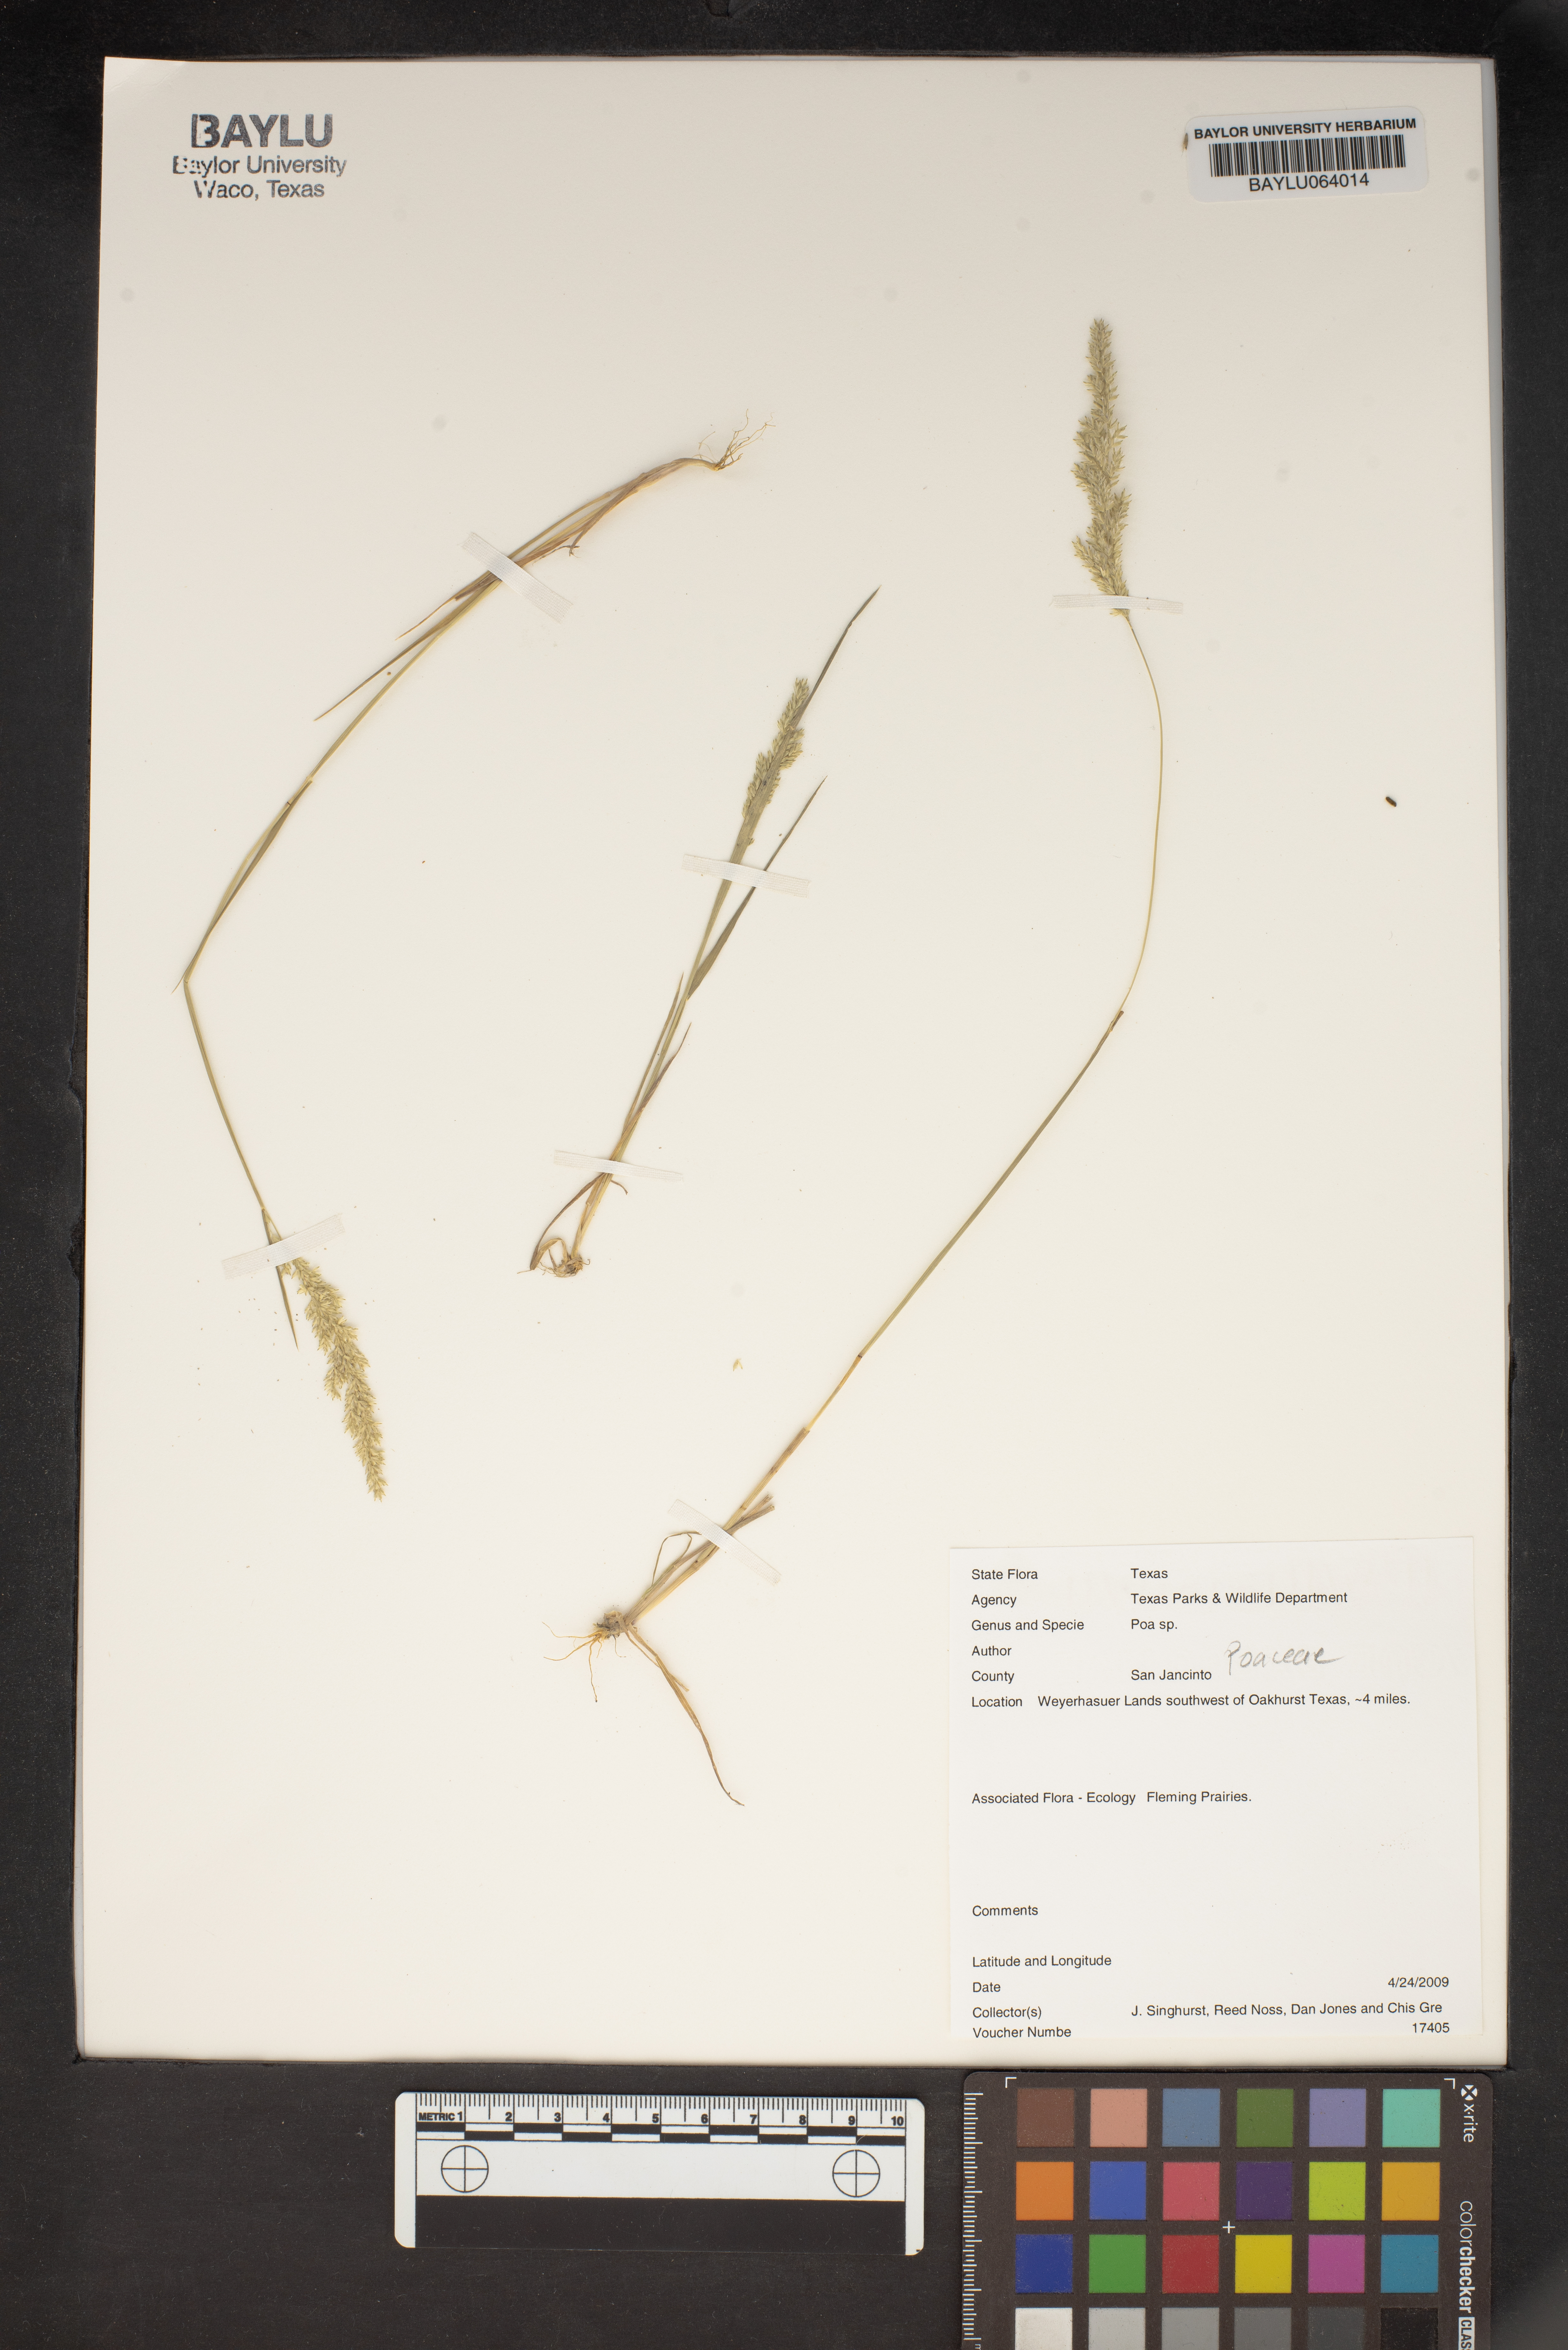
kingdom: Plantae
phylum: Tracheophyta
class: Liliopsida
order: Poales
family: Poaceae
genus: Poa
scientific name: Poa
